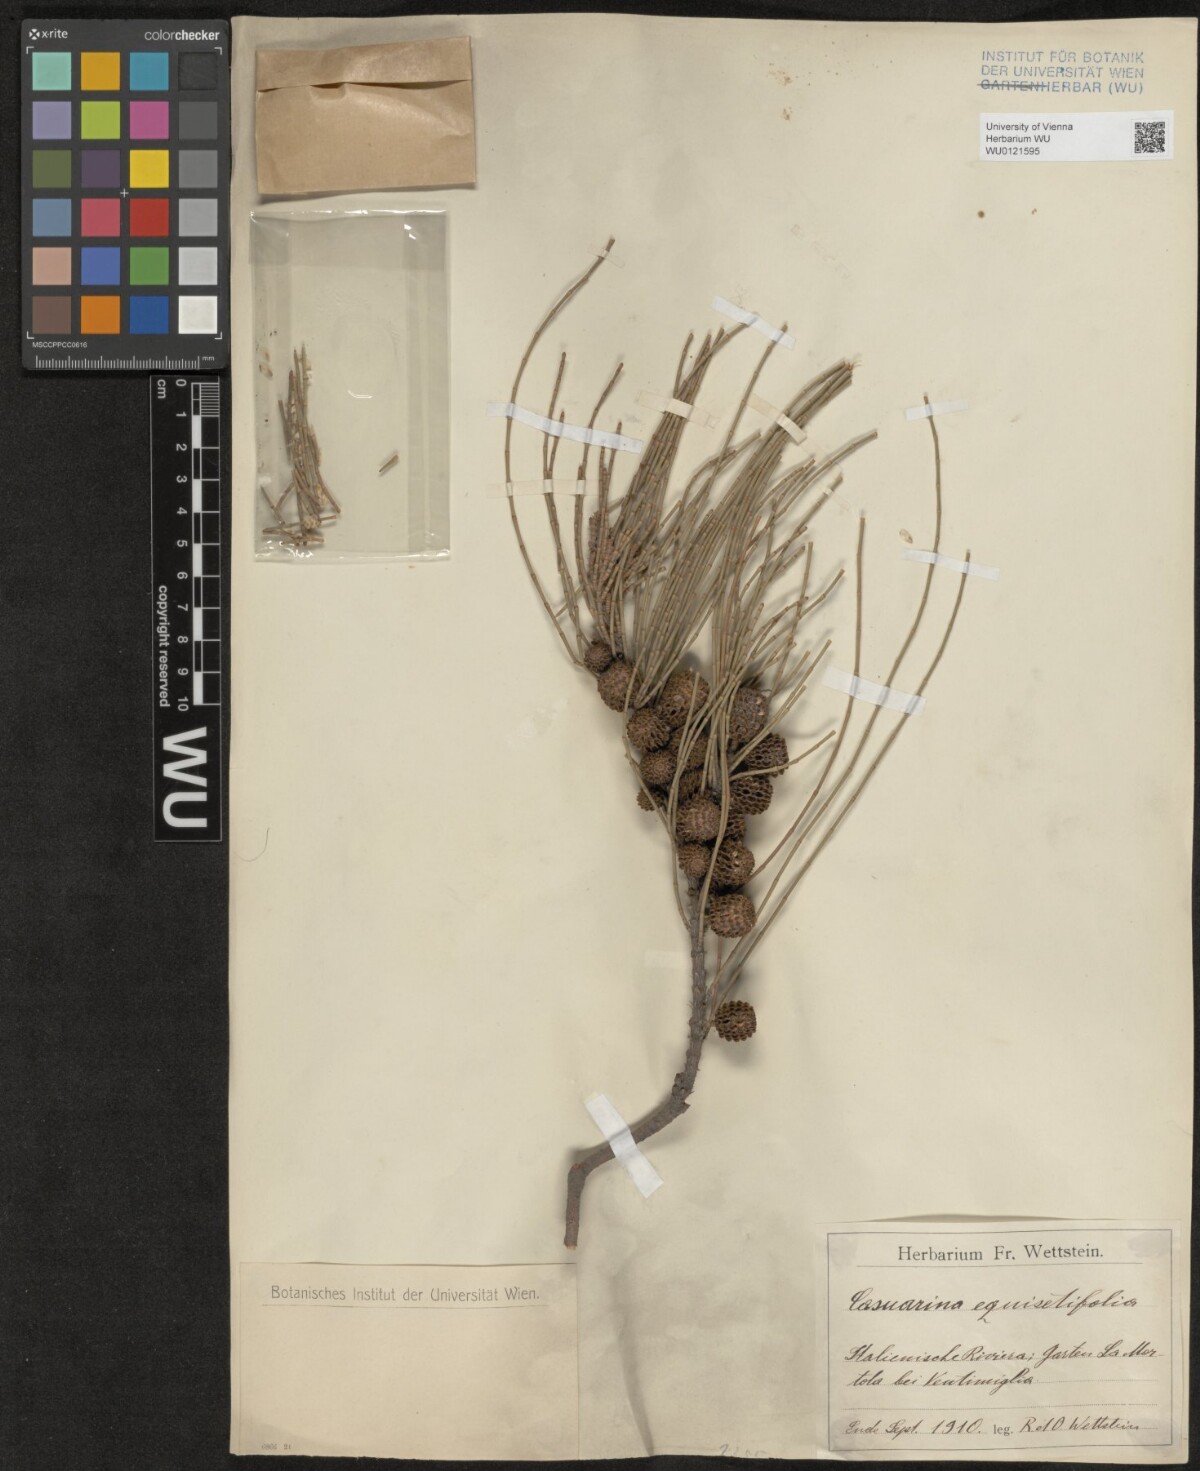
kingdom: Plantae
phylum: Tracheophyta
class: Magnoliopsida
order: Fagales
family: Casuarinaceae
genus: Casuarina
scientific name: Casuarina equisetifolia
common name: Beach sheoak
